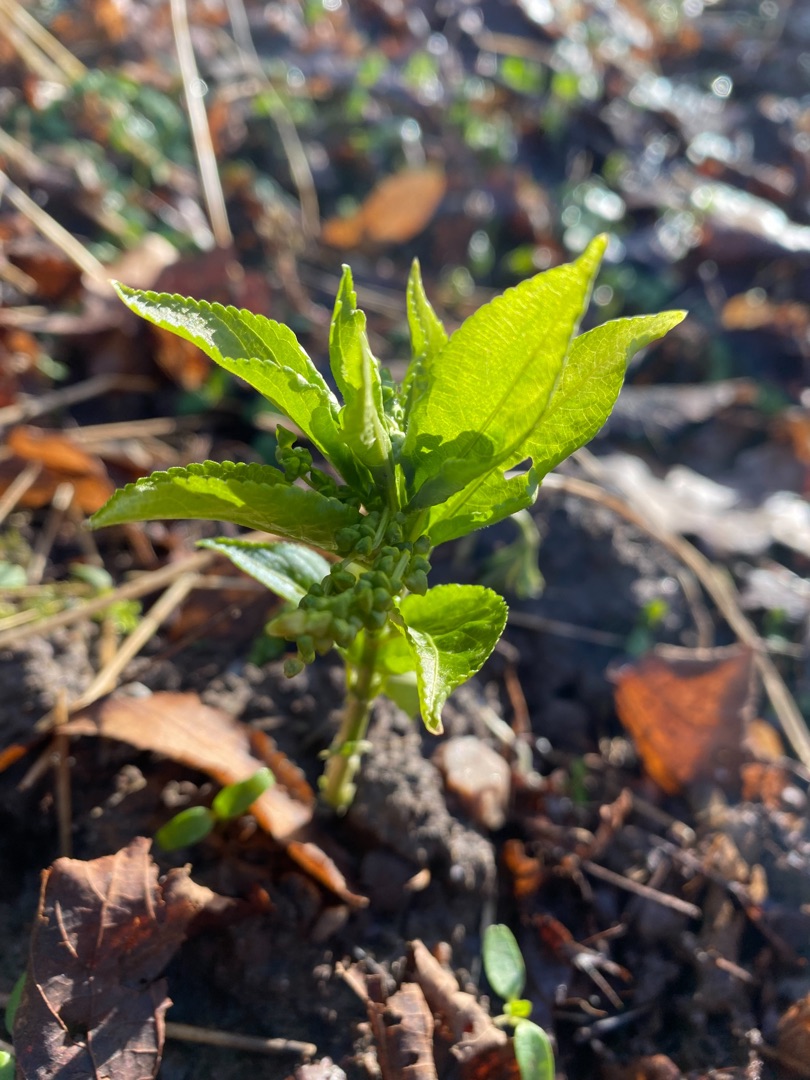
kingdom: Plantae
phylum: Tracheophyta
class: Magnoliopsida
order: Malpighiales
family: Euphorbiaceae
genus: Mercurialis
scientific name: Mercurialis perennis
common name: Almindelig bingelurt
